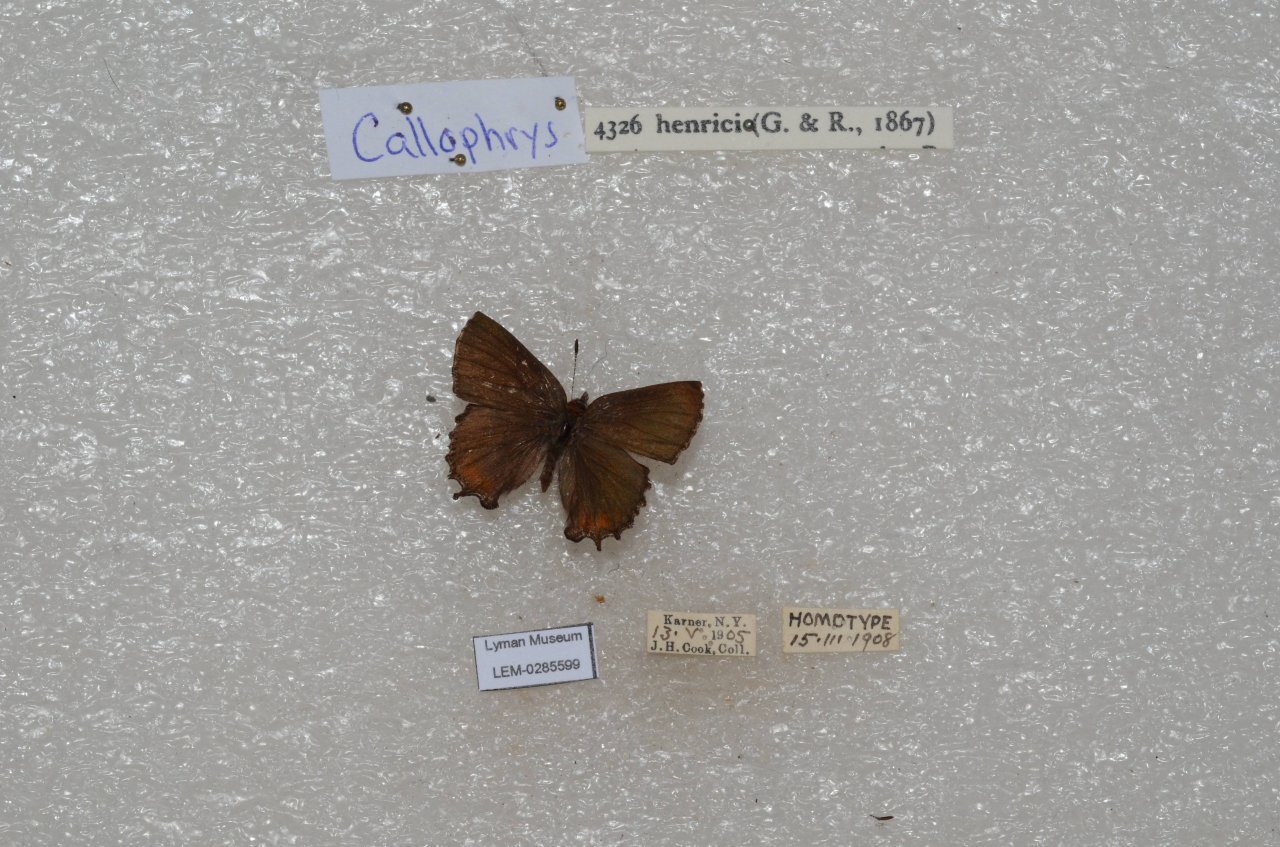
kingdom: Animalia
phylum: Arthropoda
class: Insecta
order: Lepidoptera
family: Lycaenidae
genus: Incisalia
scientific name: Incisalia henrici
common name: Henry's Elfin
